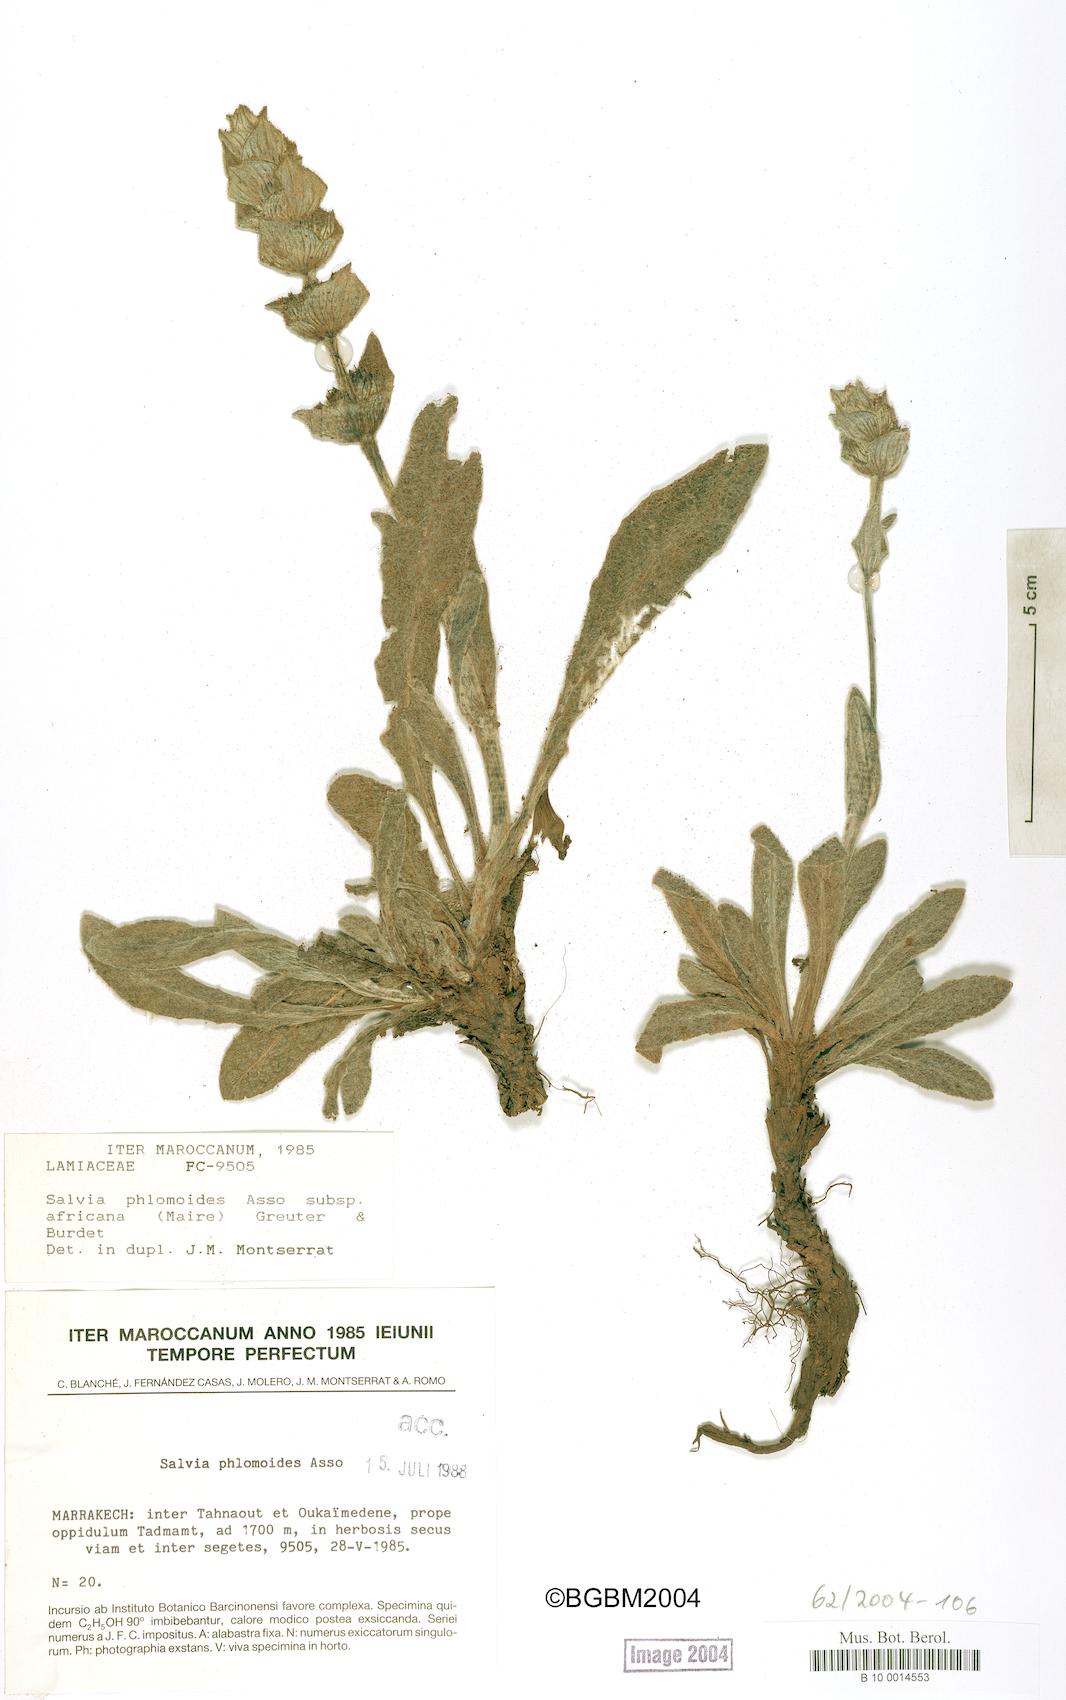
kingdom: Plantae
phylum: Tracheophyta
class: Magnoliopsida
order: Lamiales
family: Lamiaceae
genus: Salvia
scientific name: Salvia phlomoides
